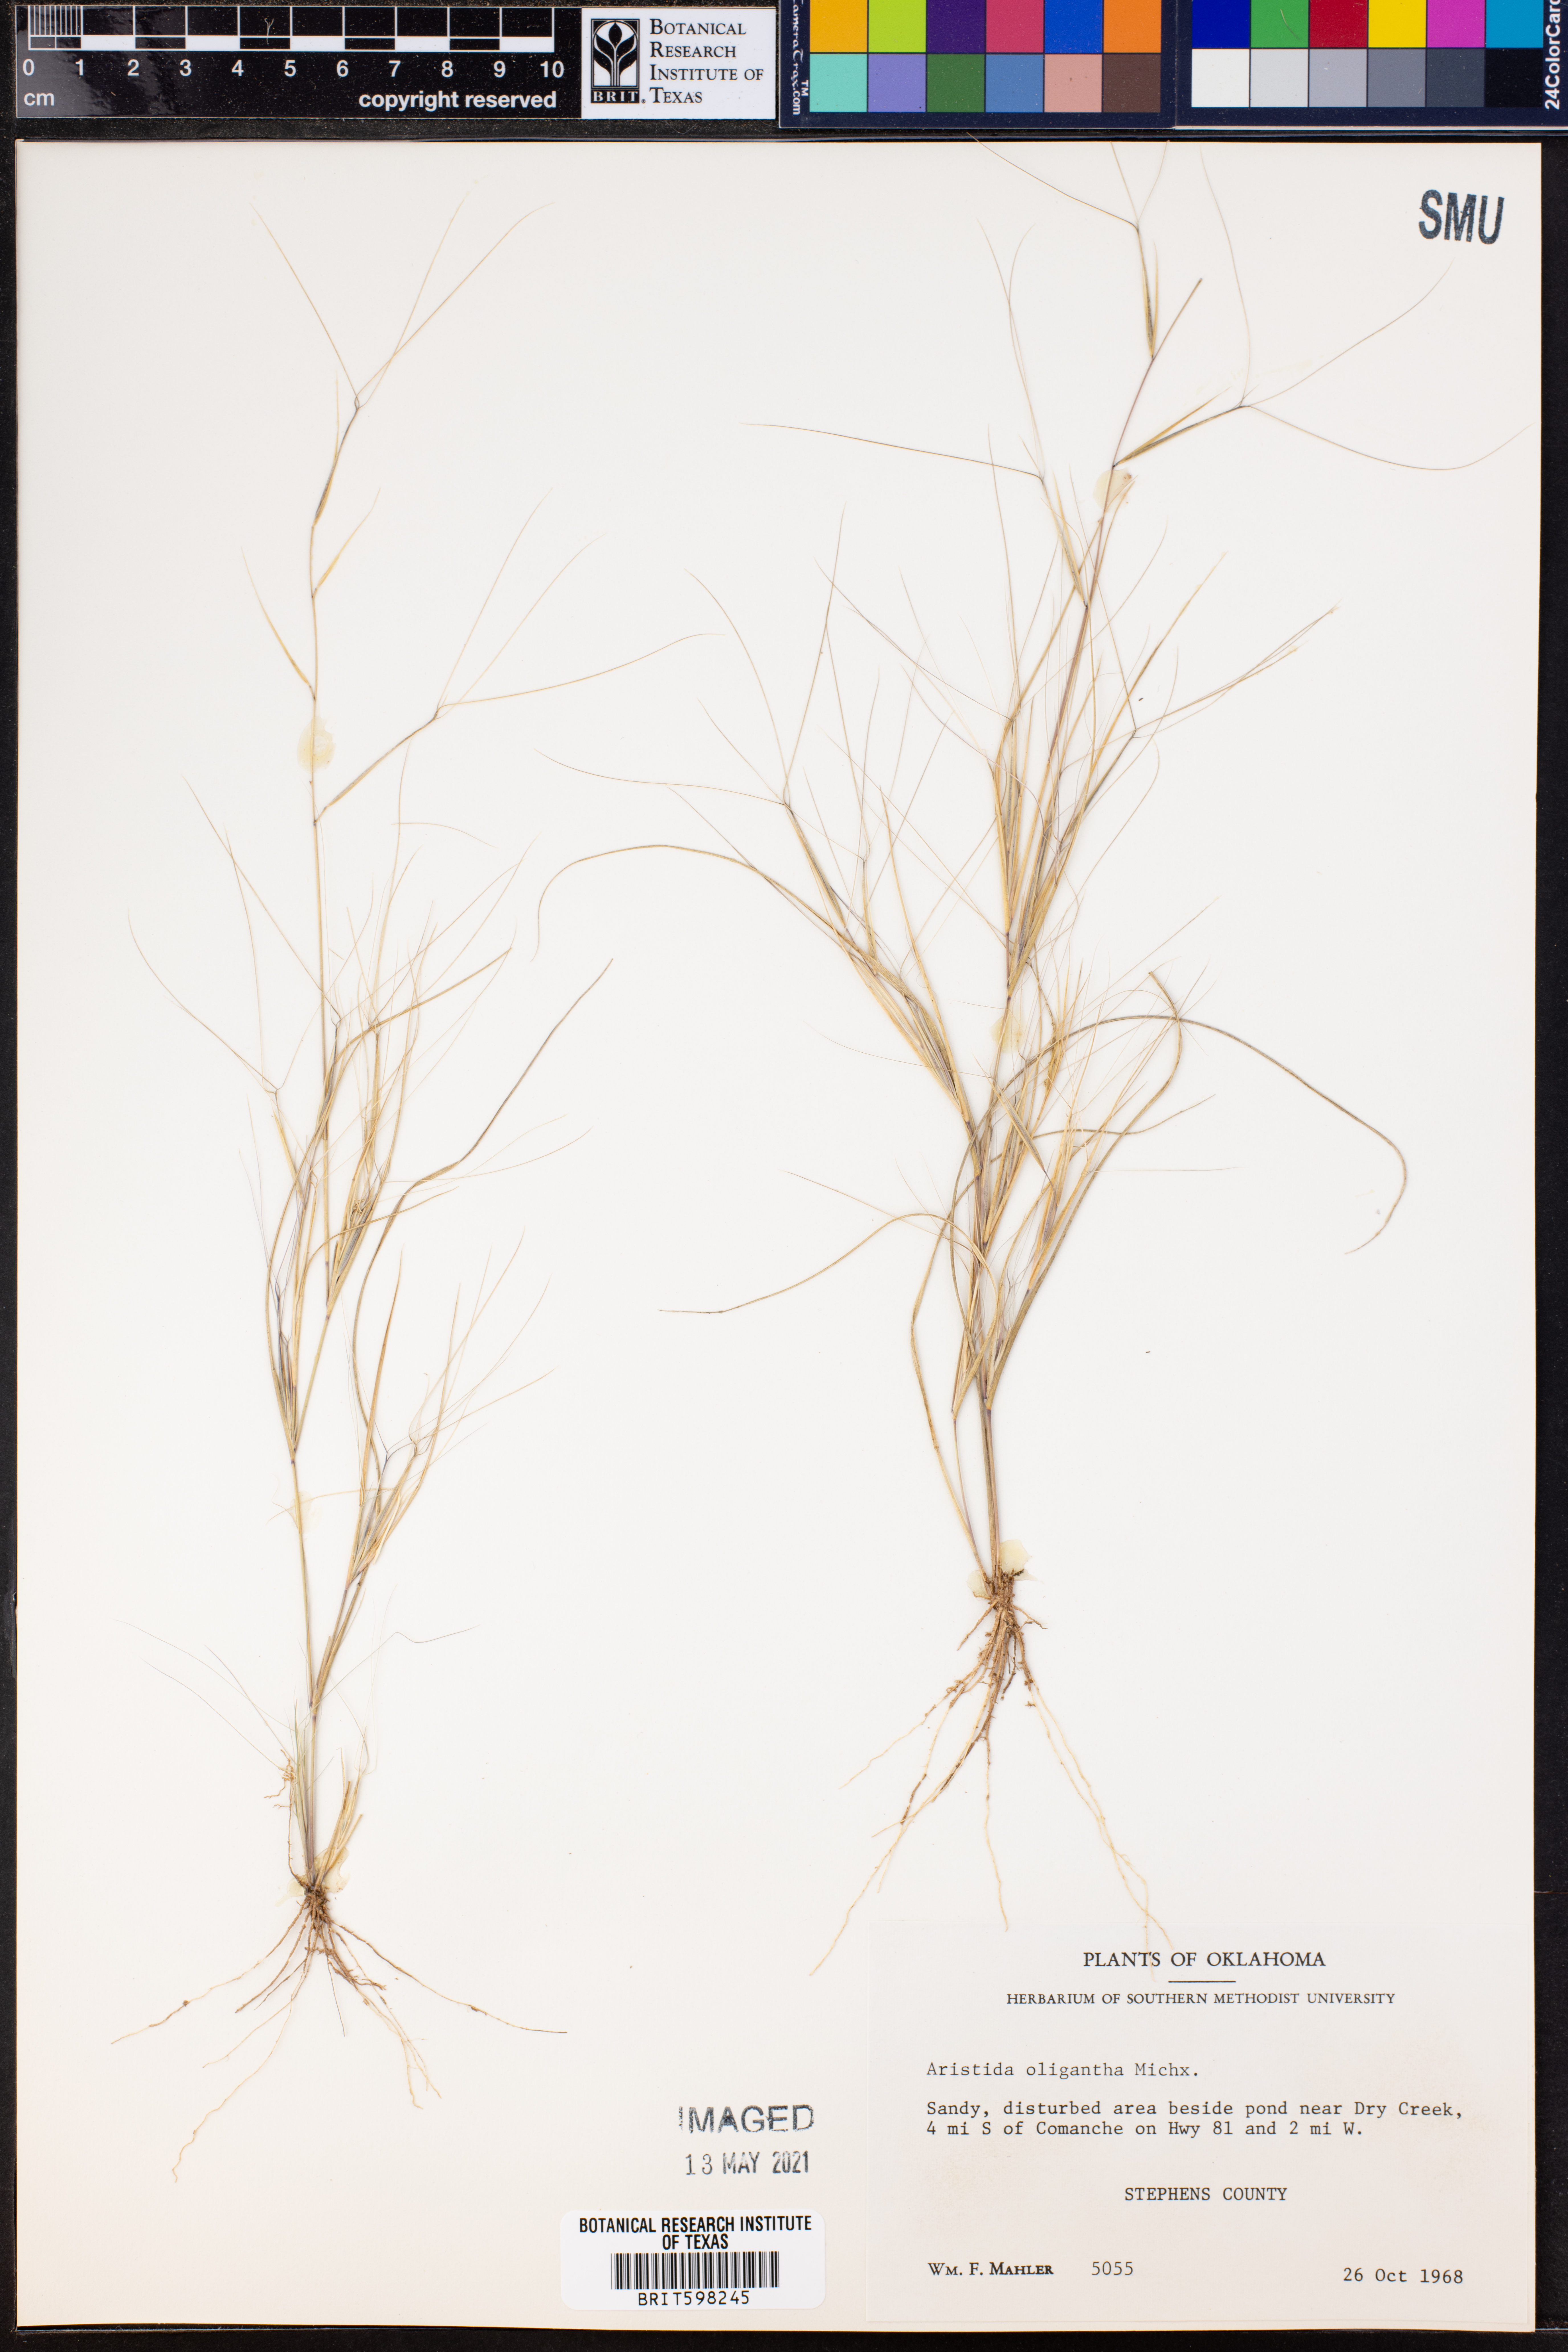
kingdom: Plantae
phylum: Tracheophyta
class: Liliopsida
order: Poales
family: Poaceae
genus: Aristida
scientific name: Aristida oligantha
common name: Few-flowered aristida
